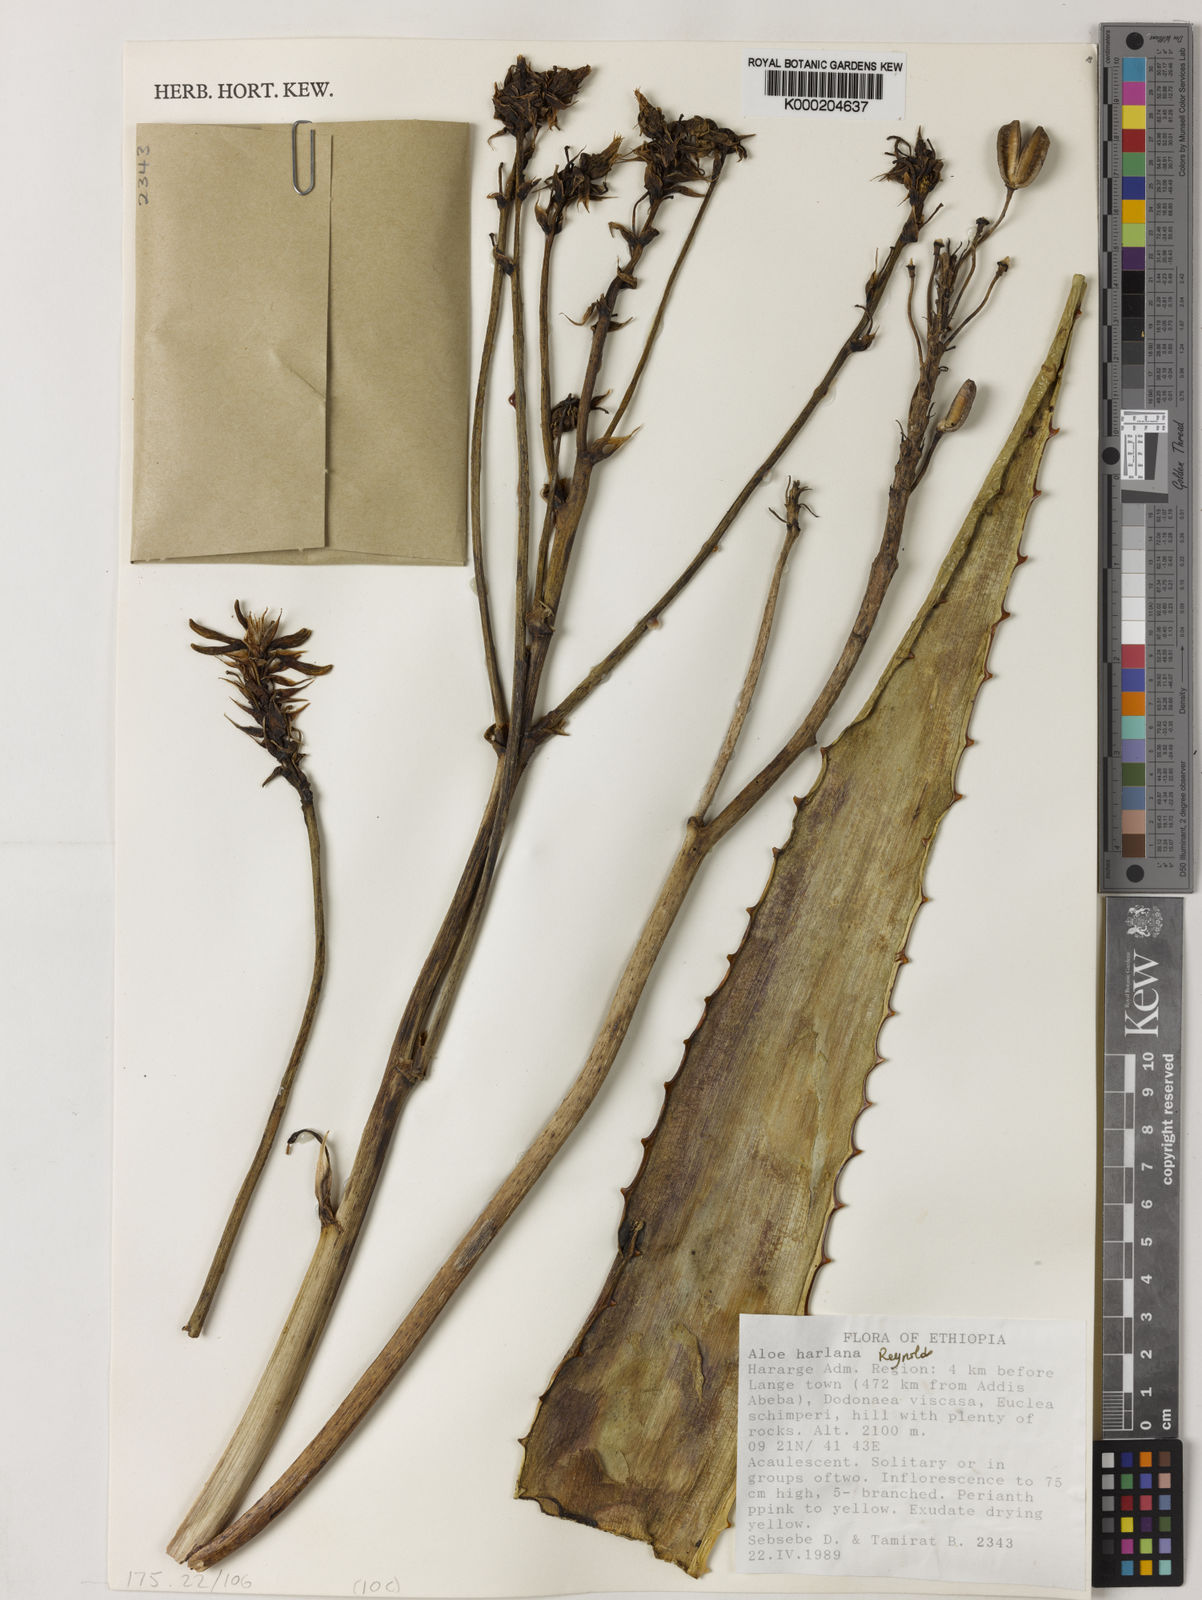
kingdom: Plantae
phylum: Tracheophyta
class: Liliopsida
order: Asparagales
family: Asphodelaceae
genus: Aloe
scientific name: Aloe harlana
